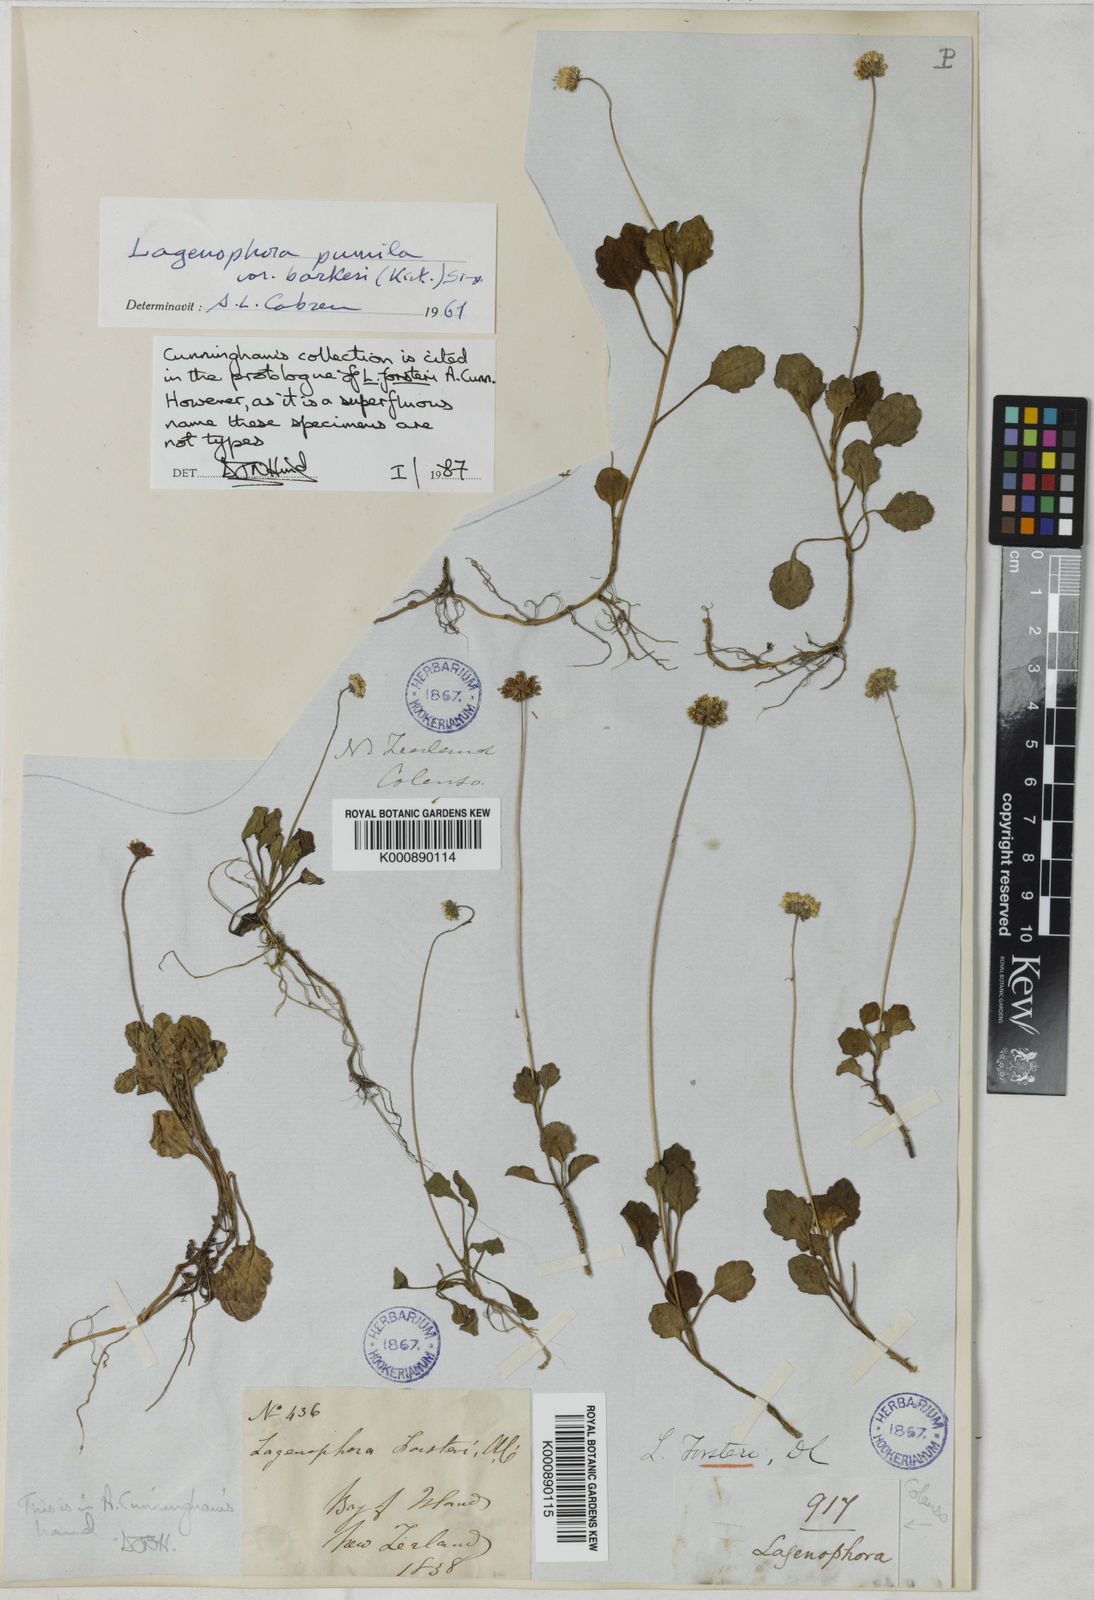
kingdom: Plantae
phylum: Tracheophyta
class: Magnoliopsida
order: Asterales
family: Asteraceae
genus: Lagenophora
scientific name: Lagenophora
